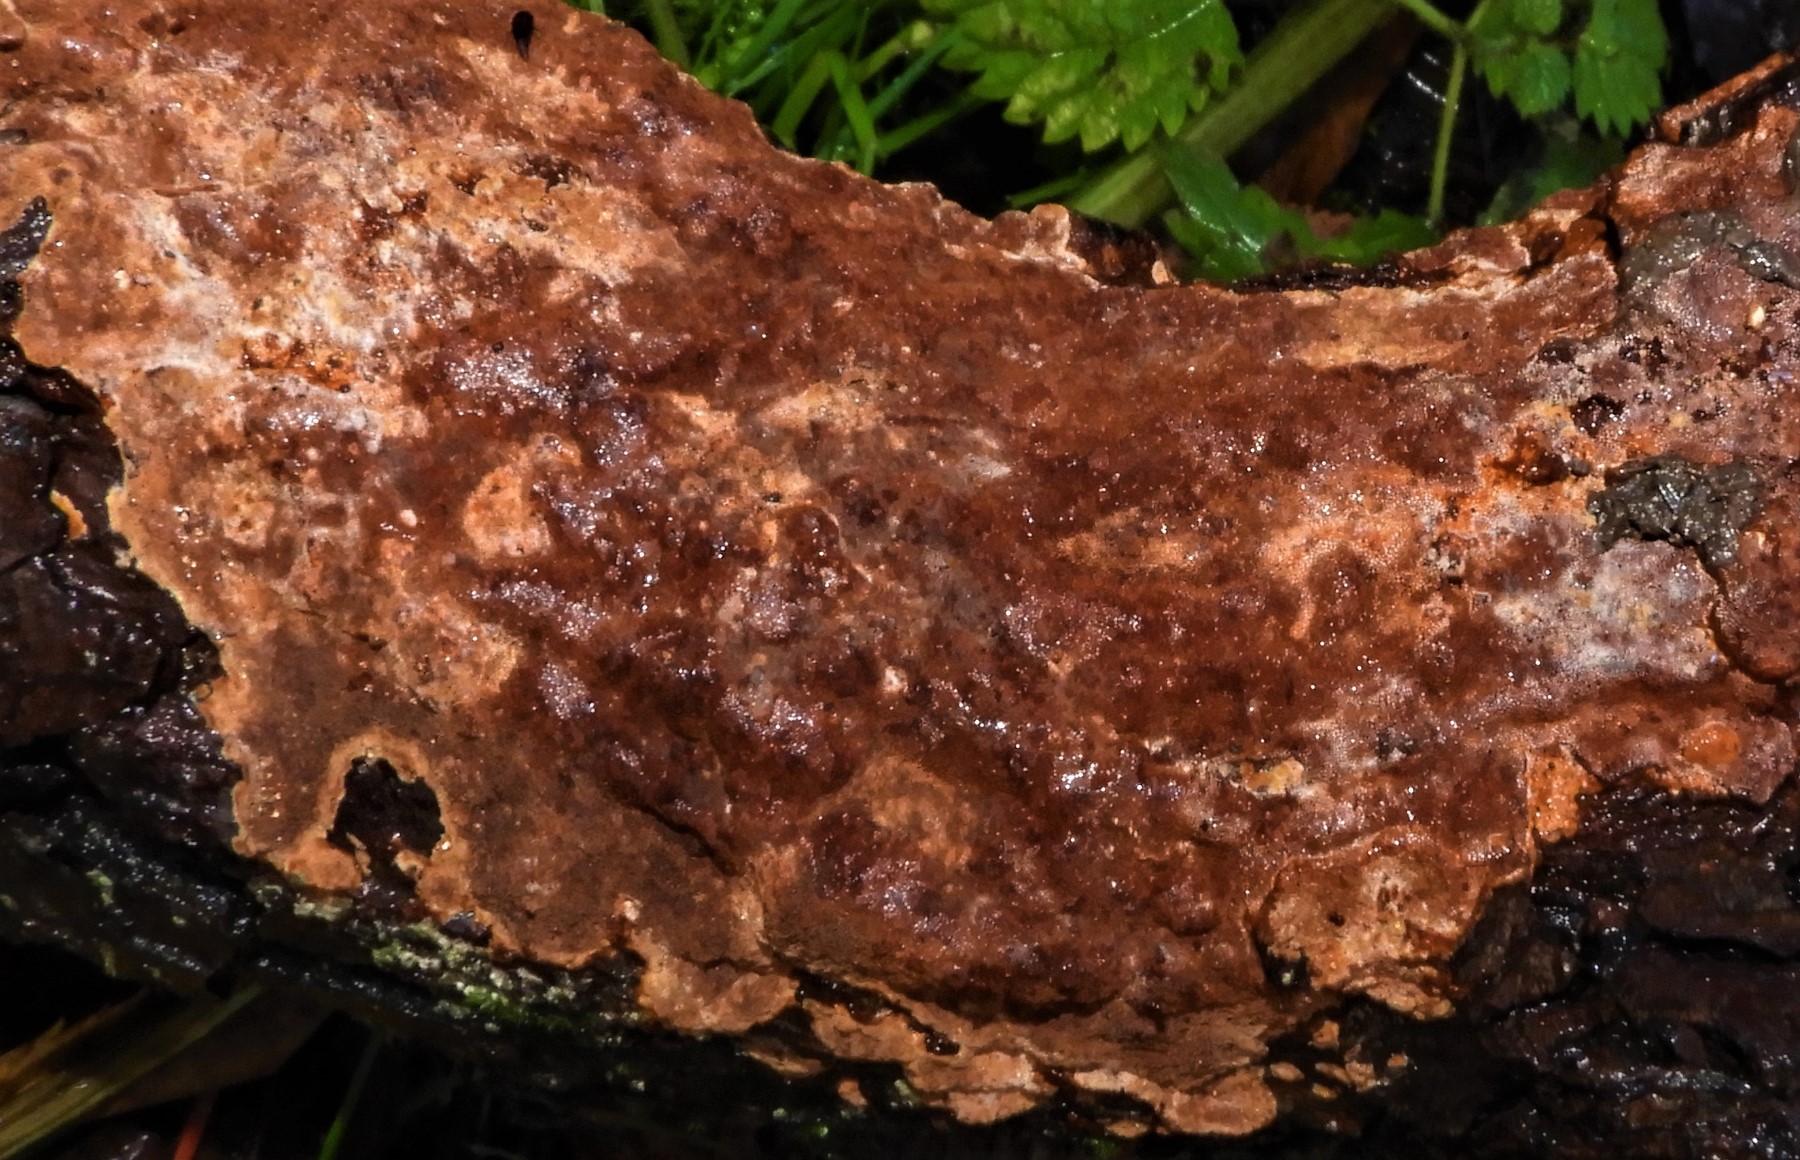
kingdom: Fungi
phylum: Basidiomycota
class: Agaricomycetes
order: Hymenochaetales
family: Hymenochaetaceae
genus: Fuscoporia
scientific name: Fuscoporia ferrea
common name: skorpe-ildporesvamp
